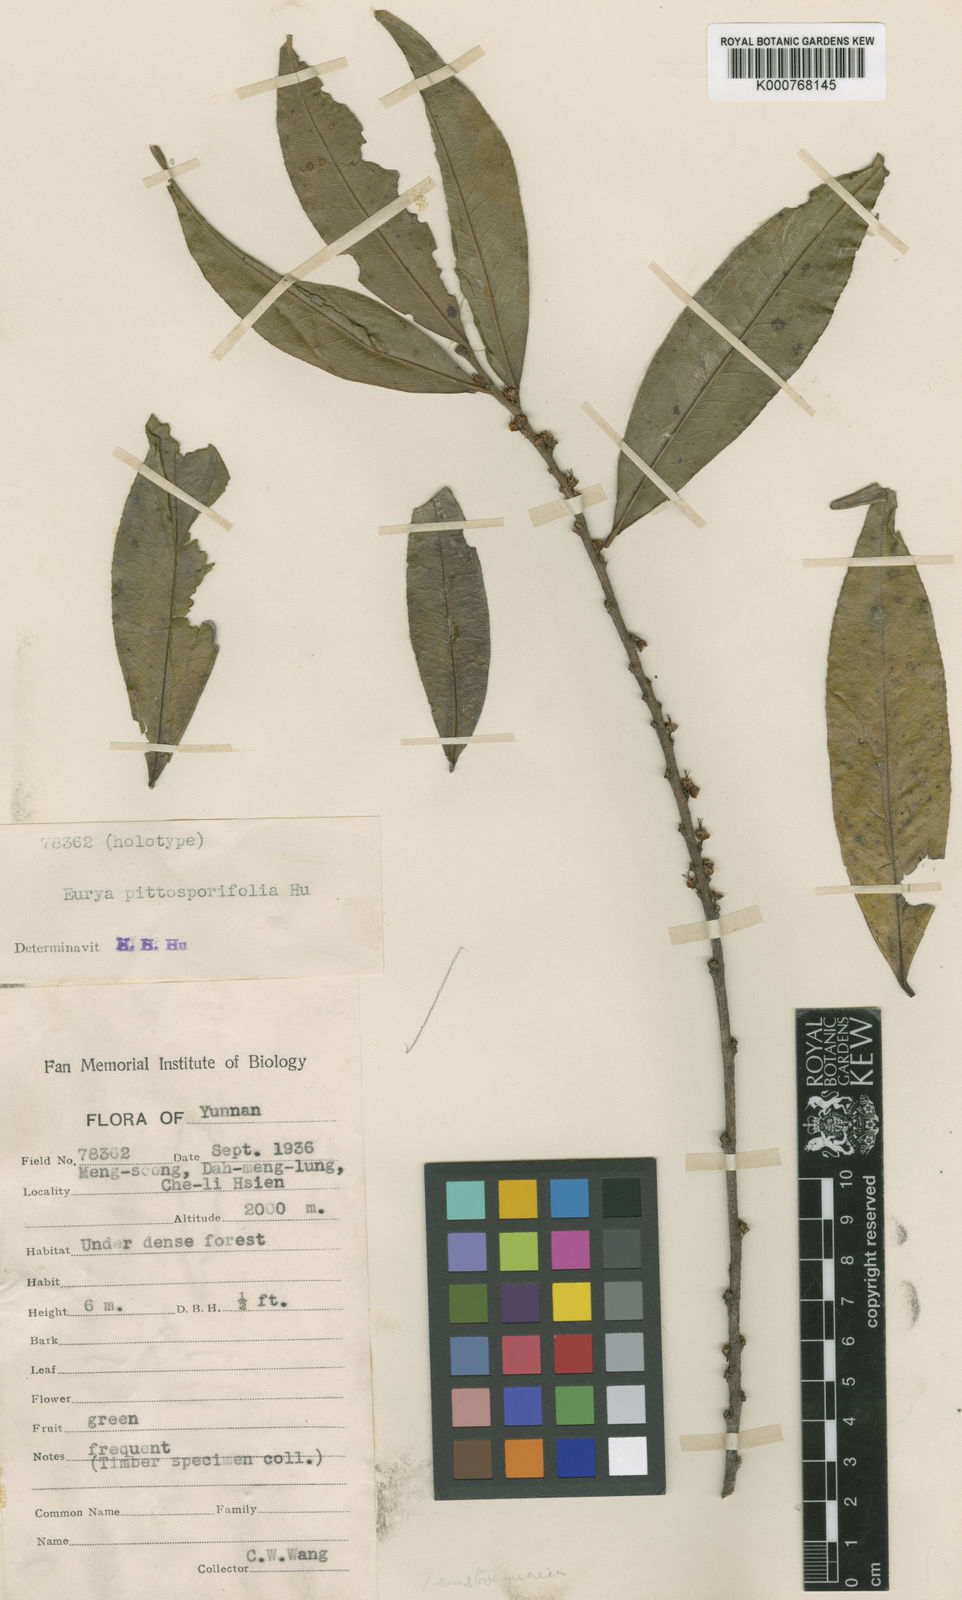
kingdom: Plantae
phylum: Tracheophyta
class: Magnoliopsida
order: Ericales
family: Pentaphylacaceae
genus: Eurya
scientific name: Eurya pittosporifolia
